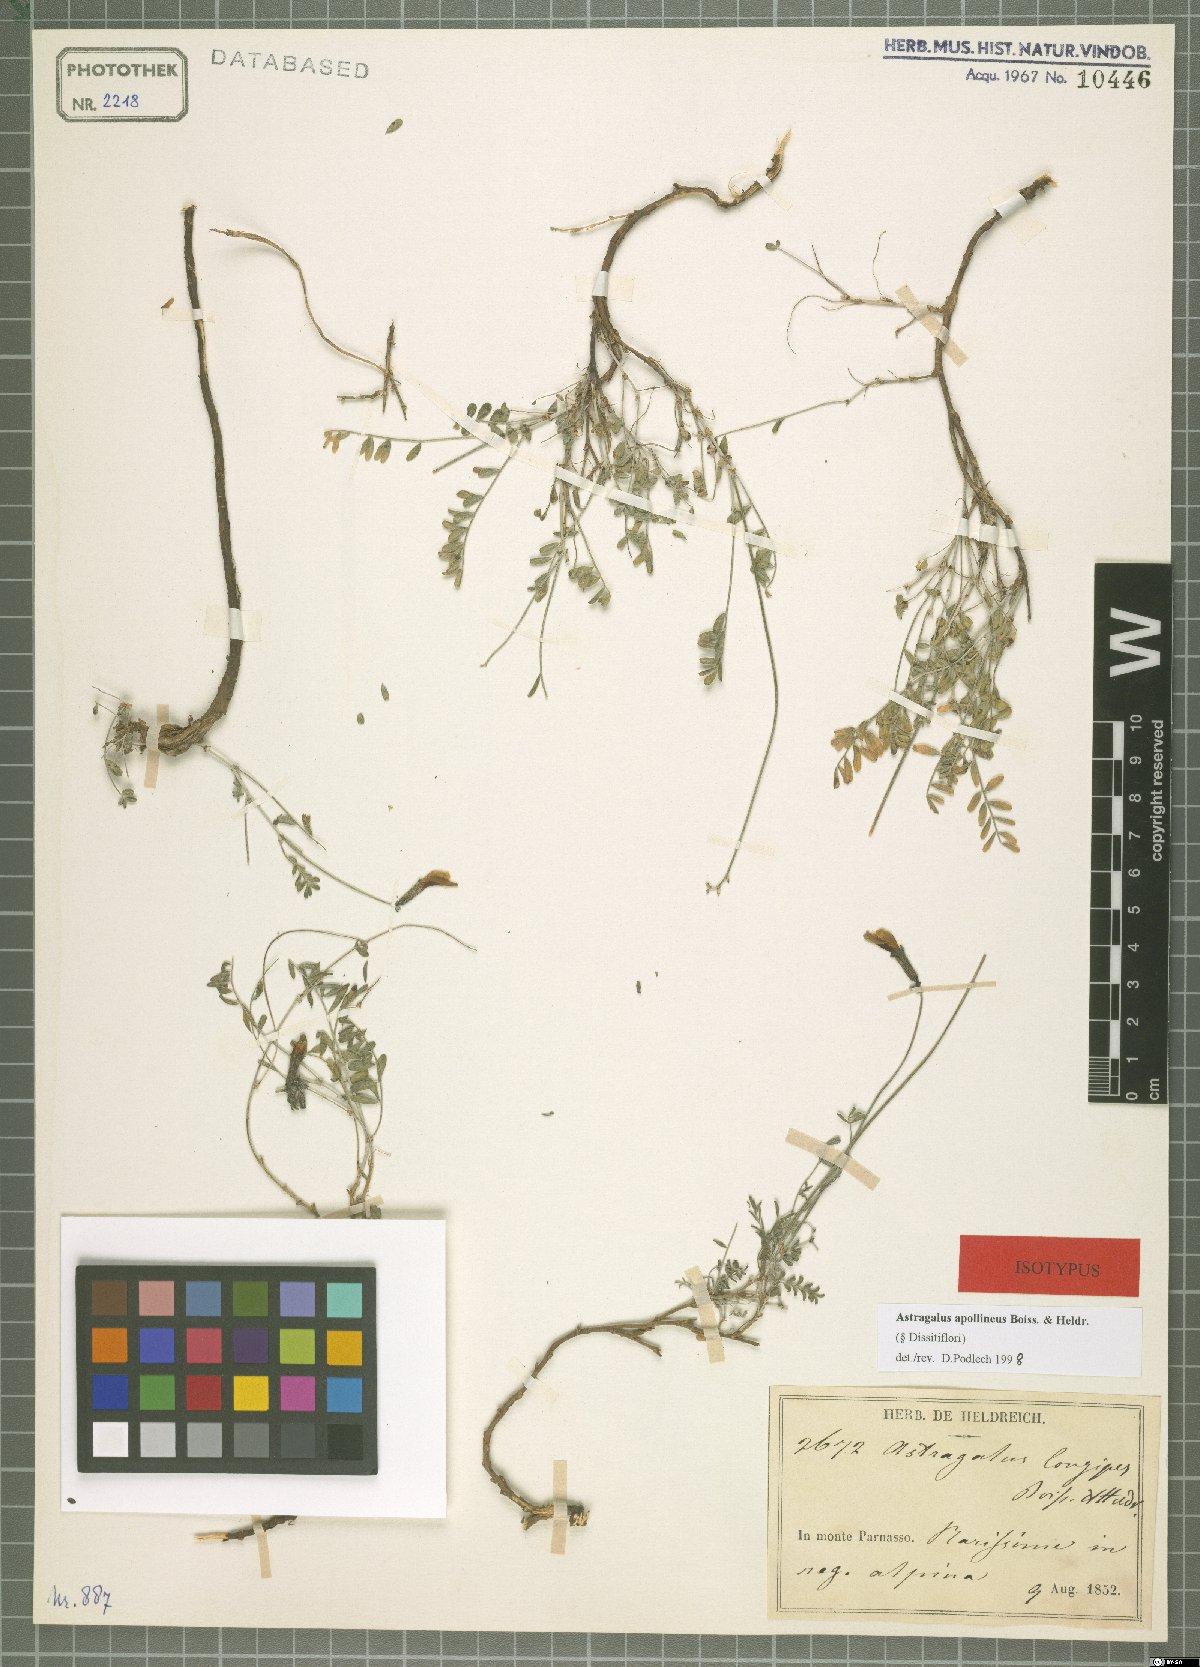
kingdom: Plantae
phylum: Tracheophyta
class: Magnoliopsida
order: Fabales
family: Fabaceae
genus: Astragalus
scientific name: Astragalus apollineus
